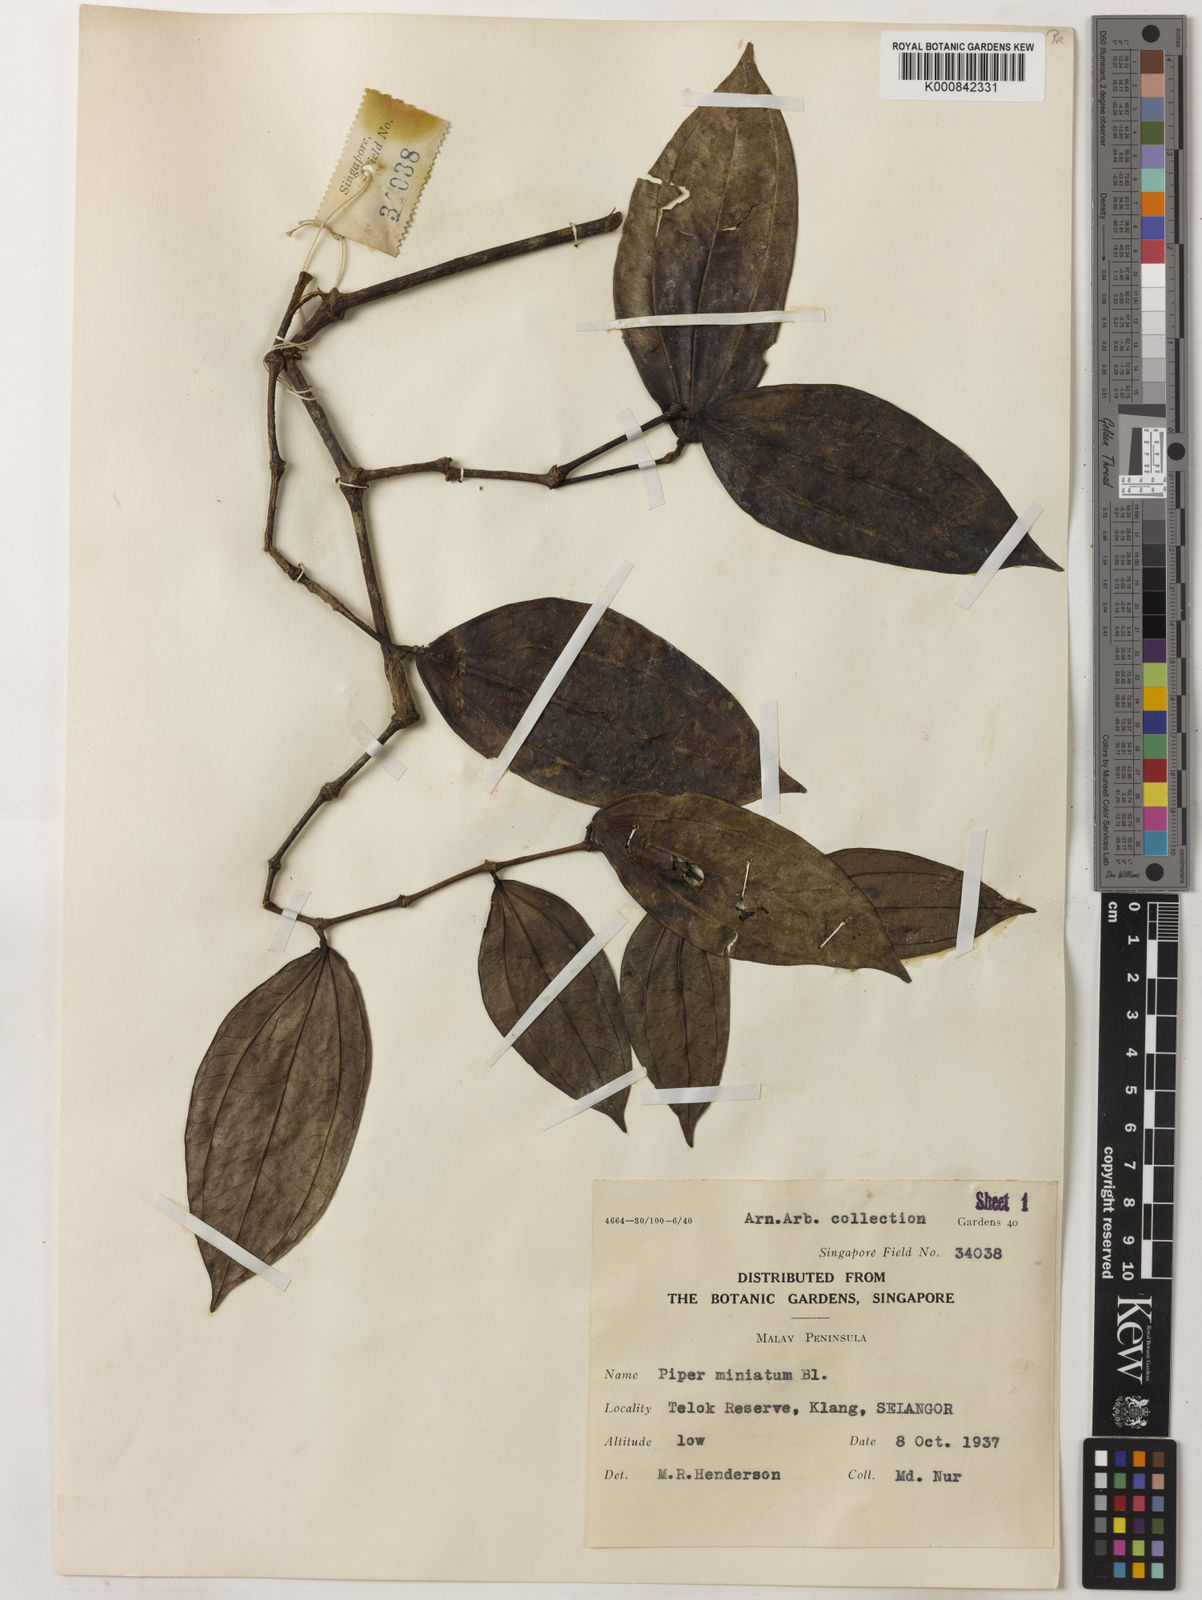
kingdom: Plantae
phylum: Tracheophyta
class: Magnoliopsida
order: Piperales
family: Piperaceae
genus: Piper
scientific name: Piper macropiper
